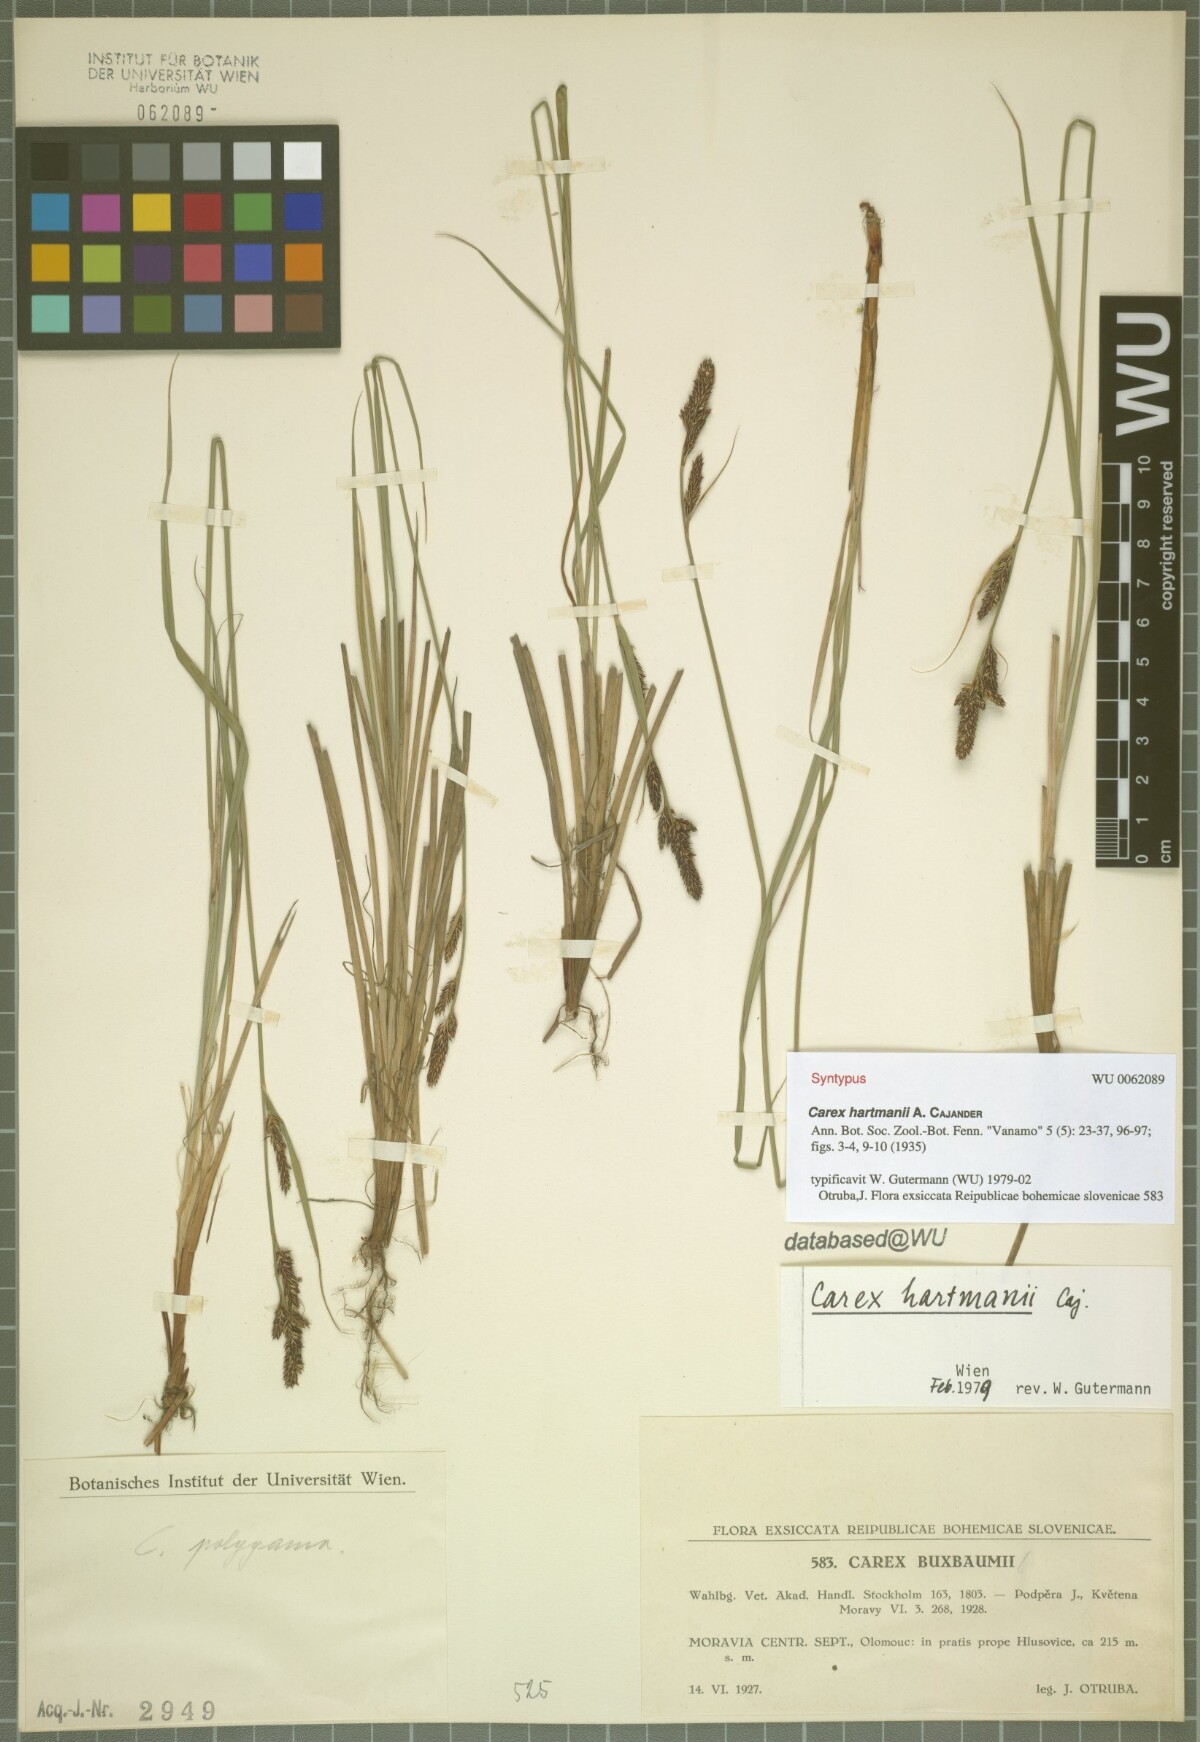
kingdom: Plantae
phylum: Tracheophyta
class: Liliopsida
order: Poales
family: Cyperaceae
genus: Carex
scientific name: Carex hartmaniorum
